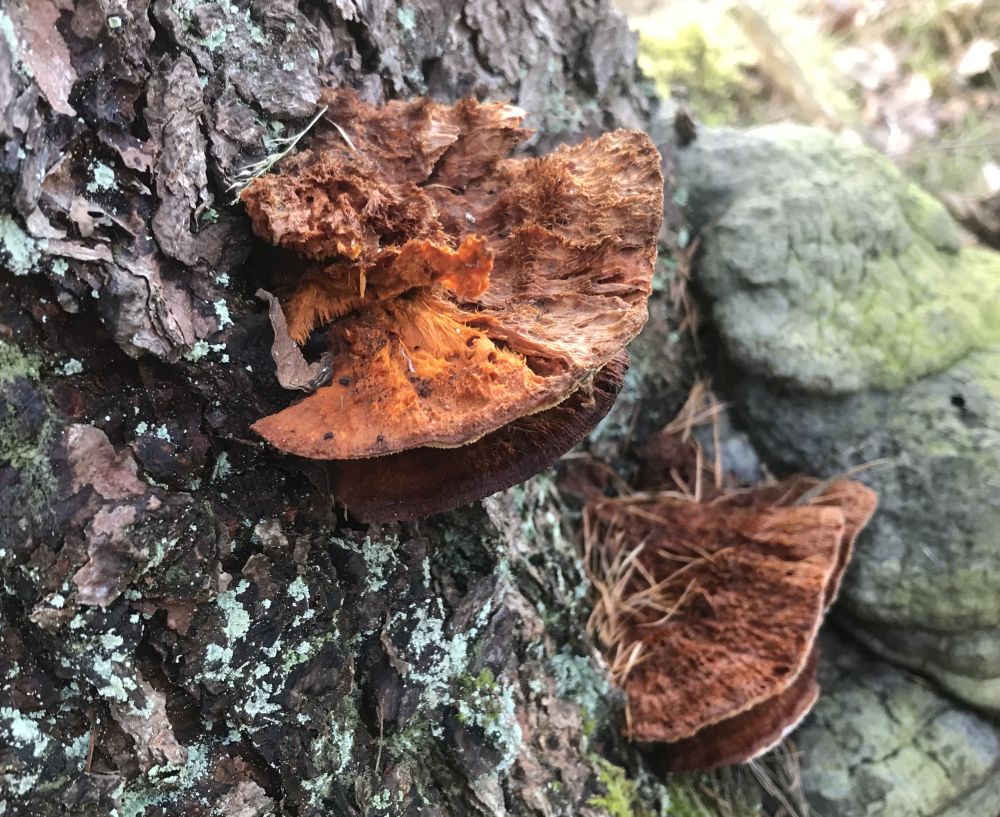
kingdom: Fungi
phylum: Basidiomycota
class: Agaricomycetes
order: Polyporales
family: Pycnoporellaceae
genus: Pycnoporellus
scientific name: Pycnoporellus fulgens
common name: flammeporesvamp
